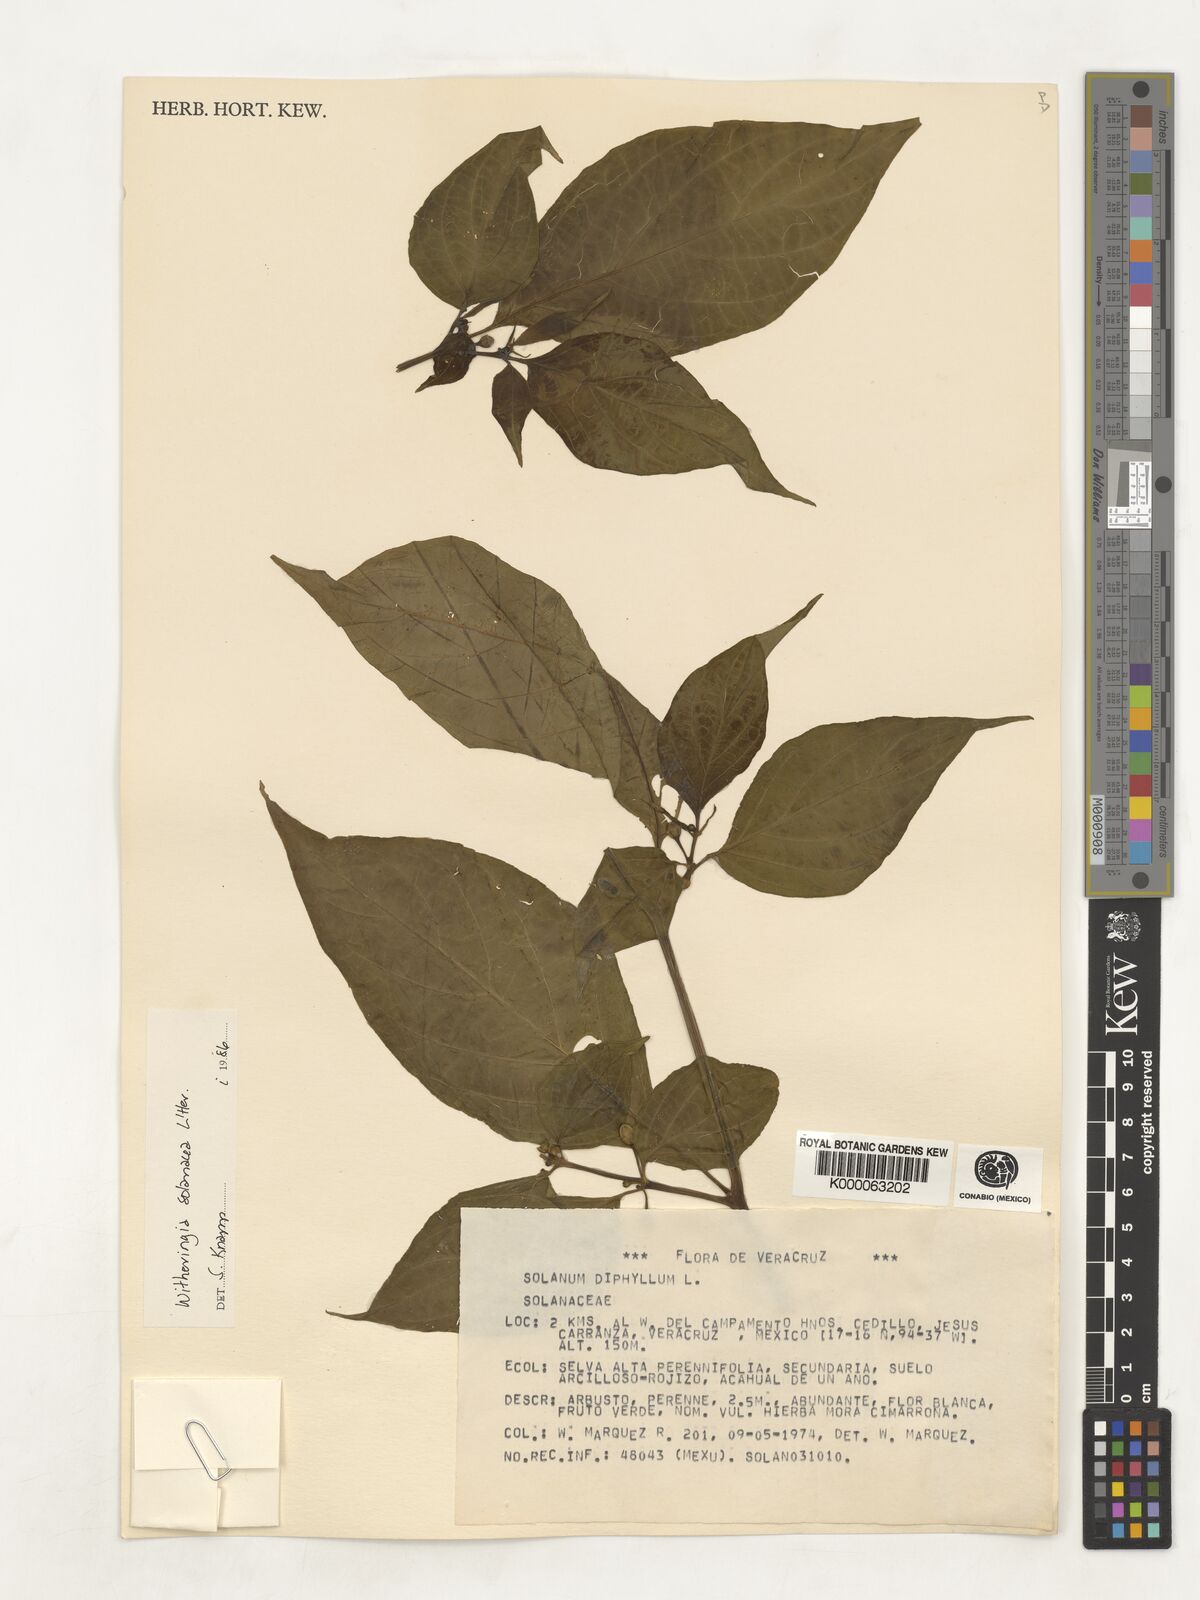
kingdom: Plantae
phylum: Tracheophyta
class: Magnoliopsida
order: Solanales
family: Solanaceae
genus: Witheringia
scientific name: Witheringia
